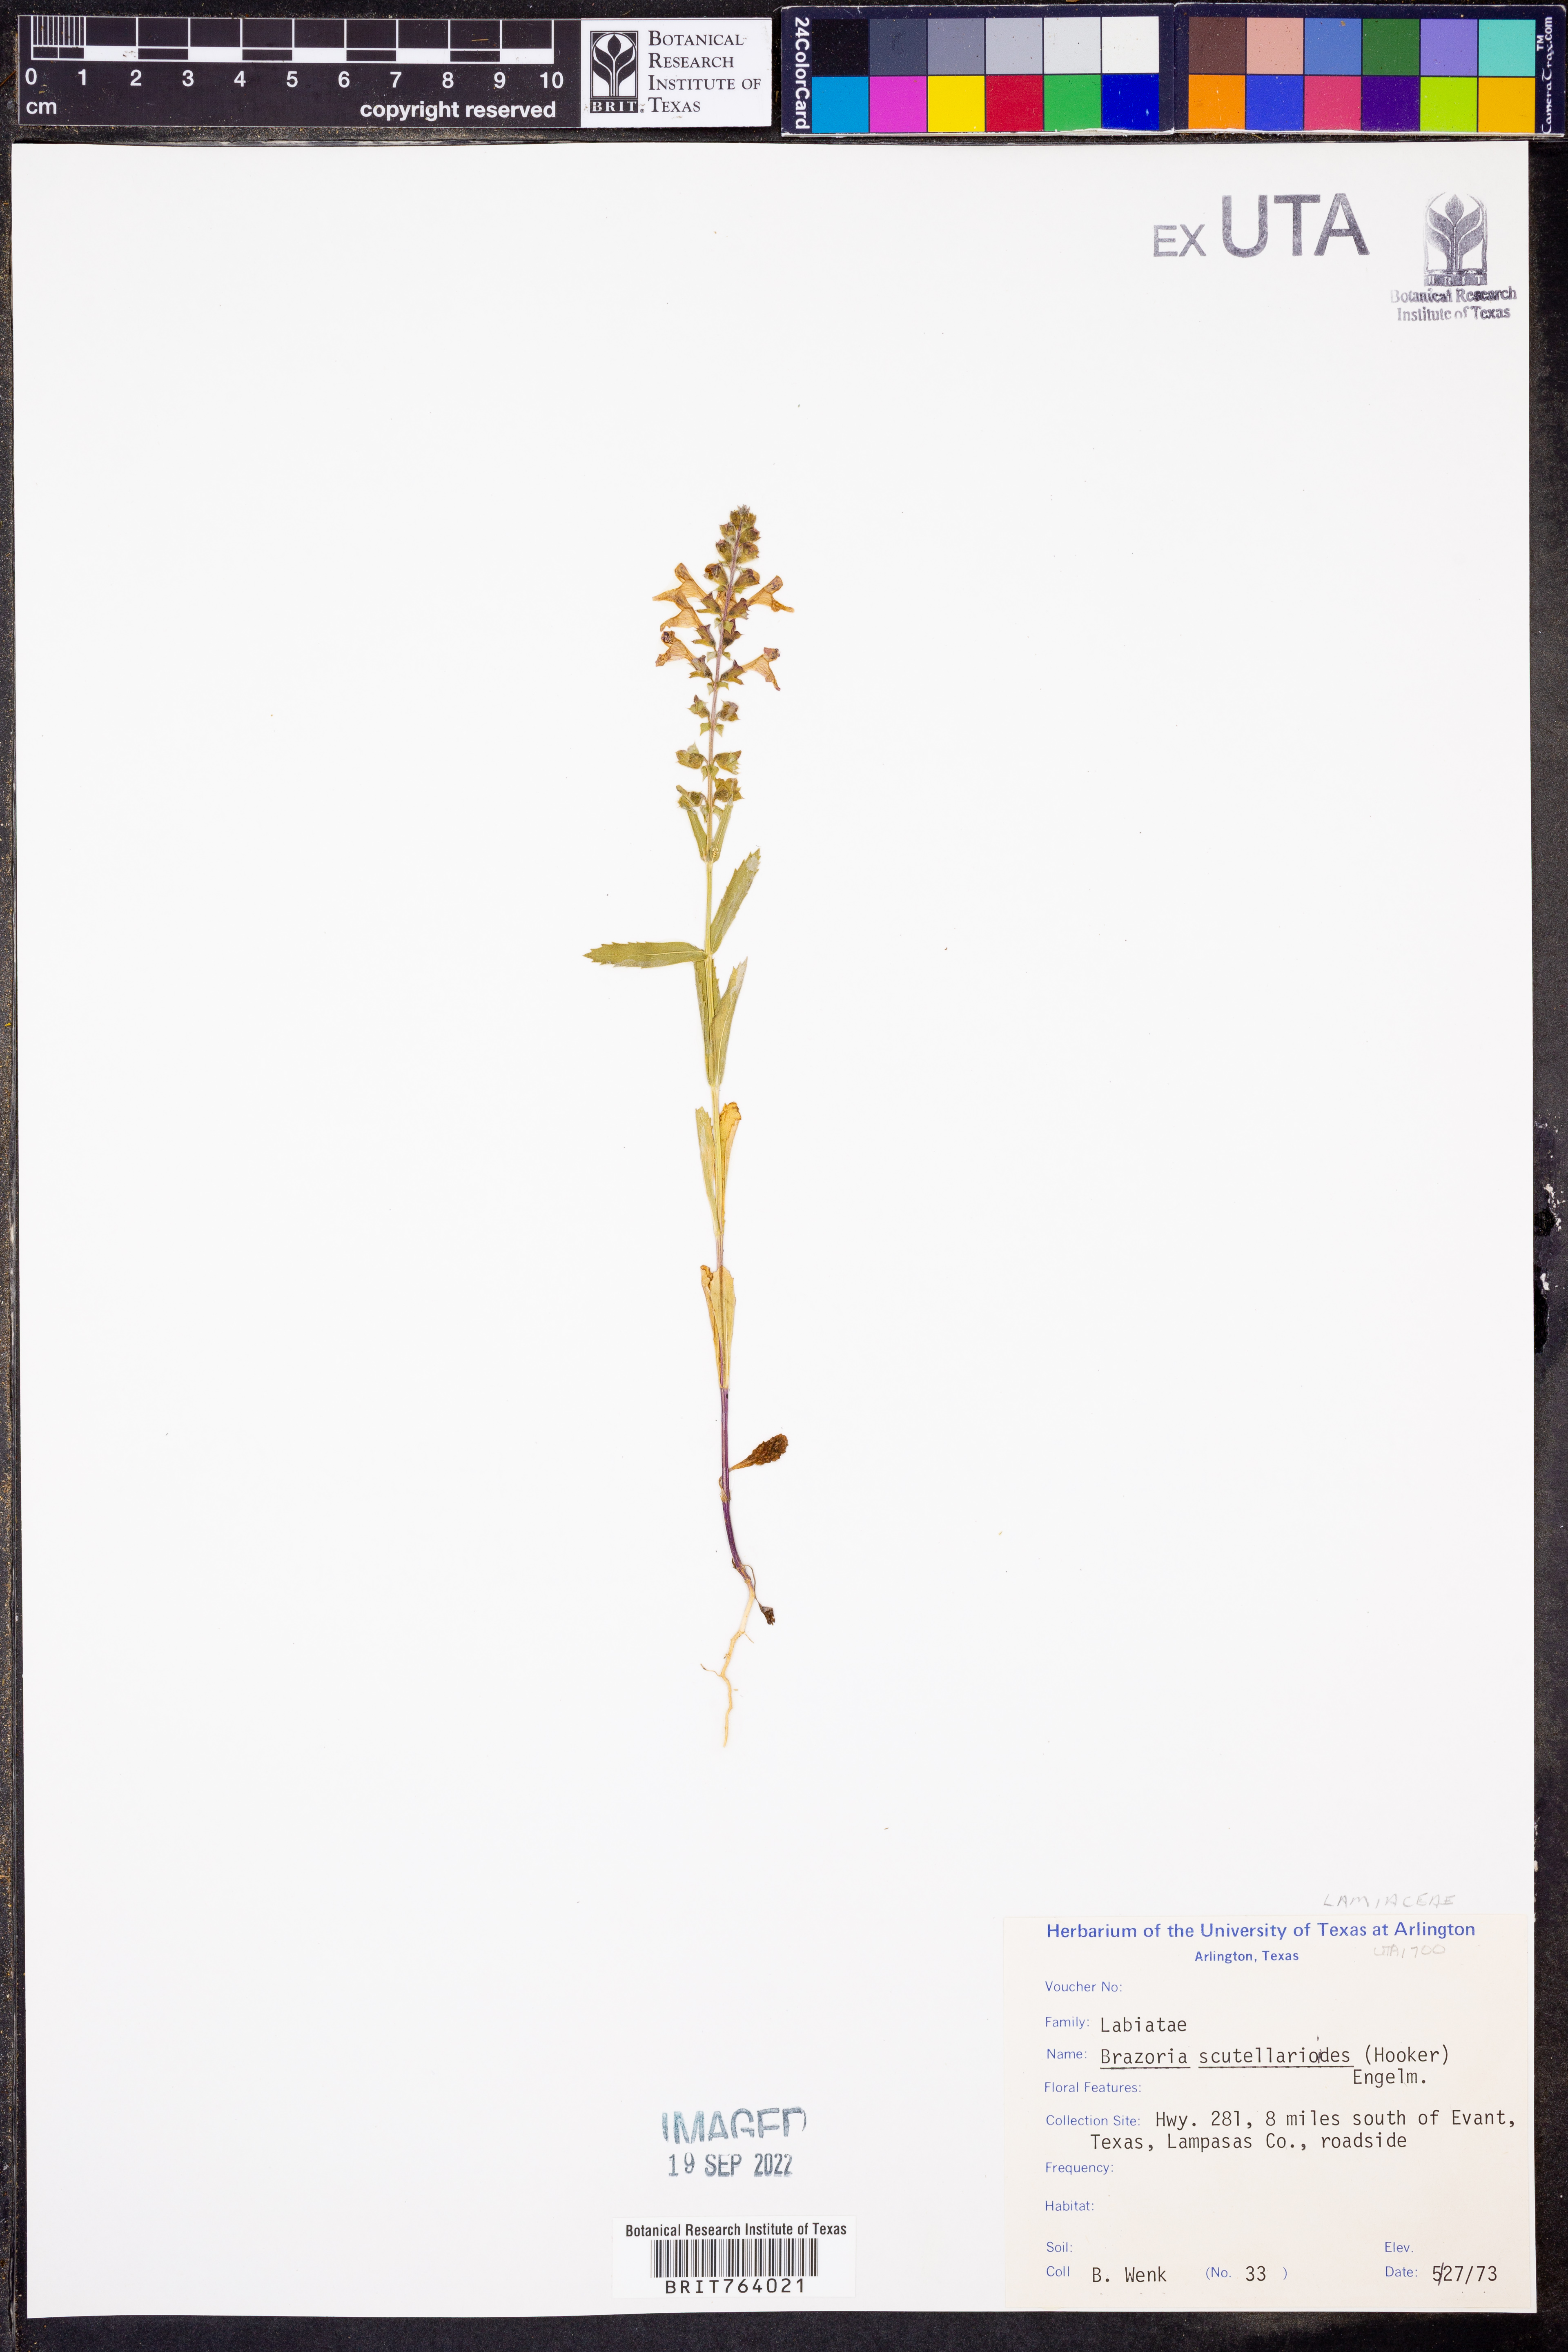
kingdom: Plantae
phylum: Tracheophyta
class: Magnoliopsida
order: Lamiales
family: Lamiaceae
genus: Warnockia
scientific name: Warnockia scutellarioides
